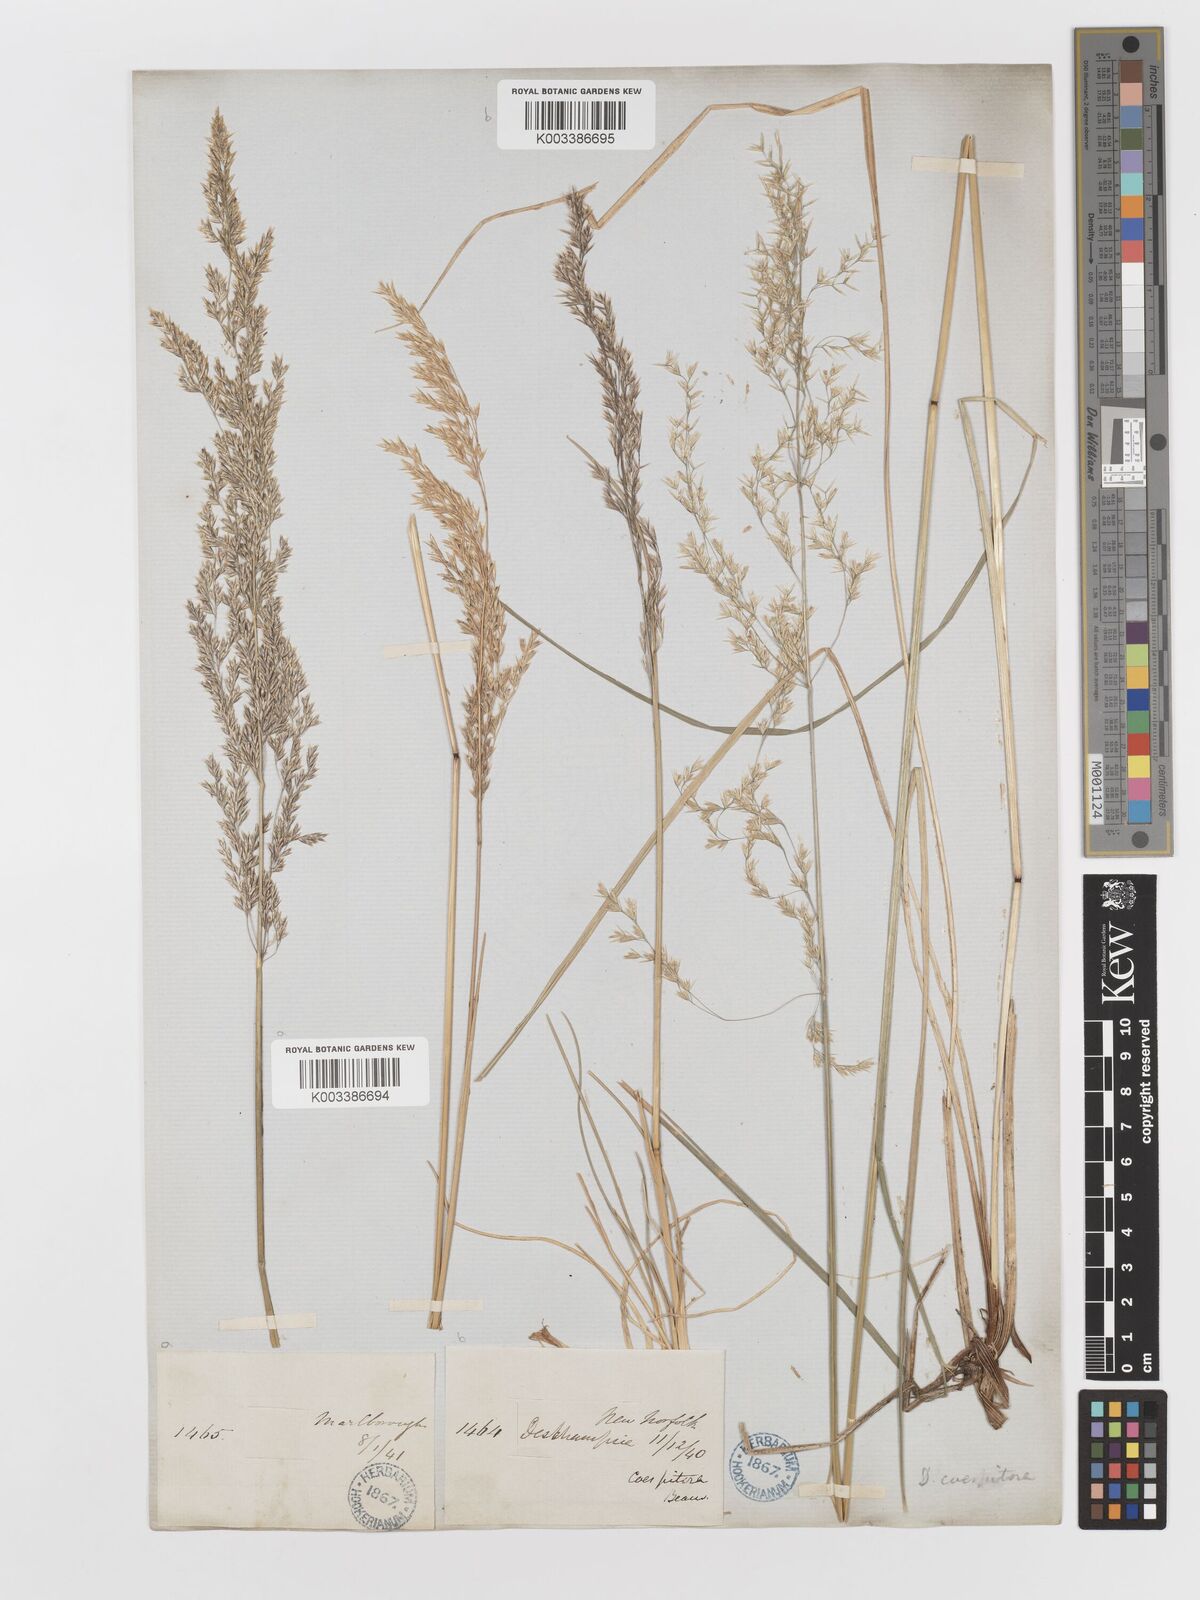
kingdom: Plantae
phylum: Tracheophyta
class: Liliopsida
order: Poales
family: Poaceae
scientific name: Poaceae
